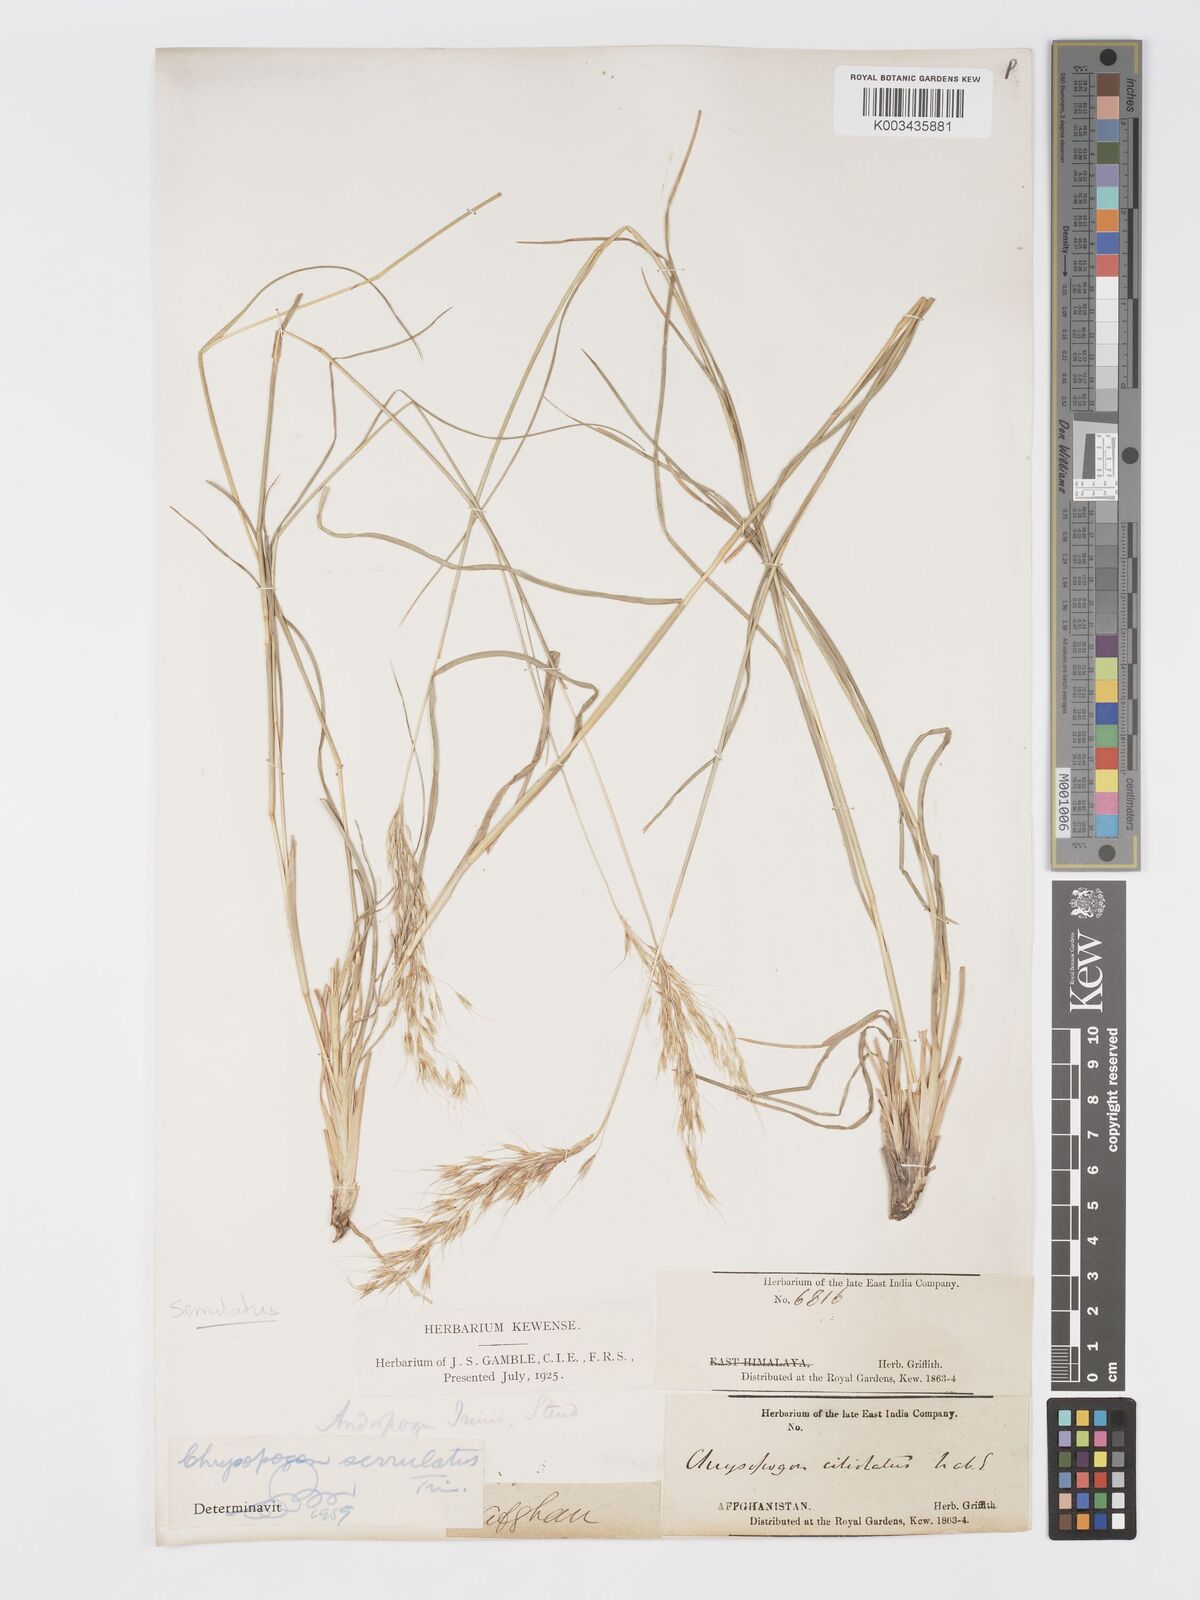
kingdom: Plantae
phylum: Tracheophyta
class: Liliopsida
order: Poales
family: Poaceae
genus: Chrysopogon
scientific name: Chrysopogon serrulatus
